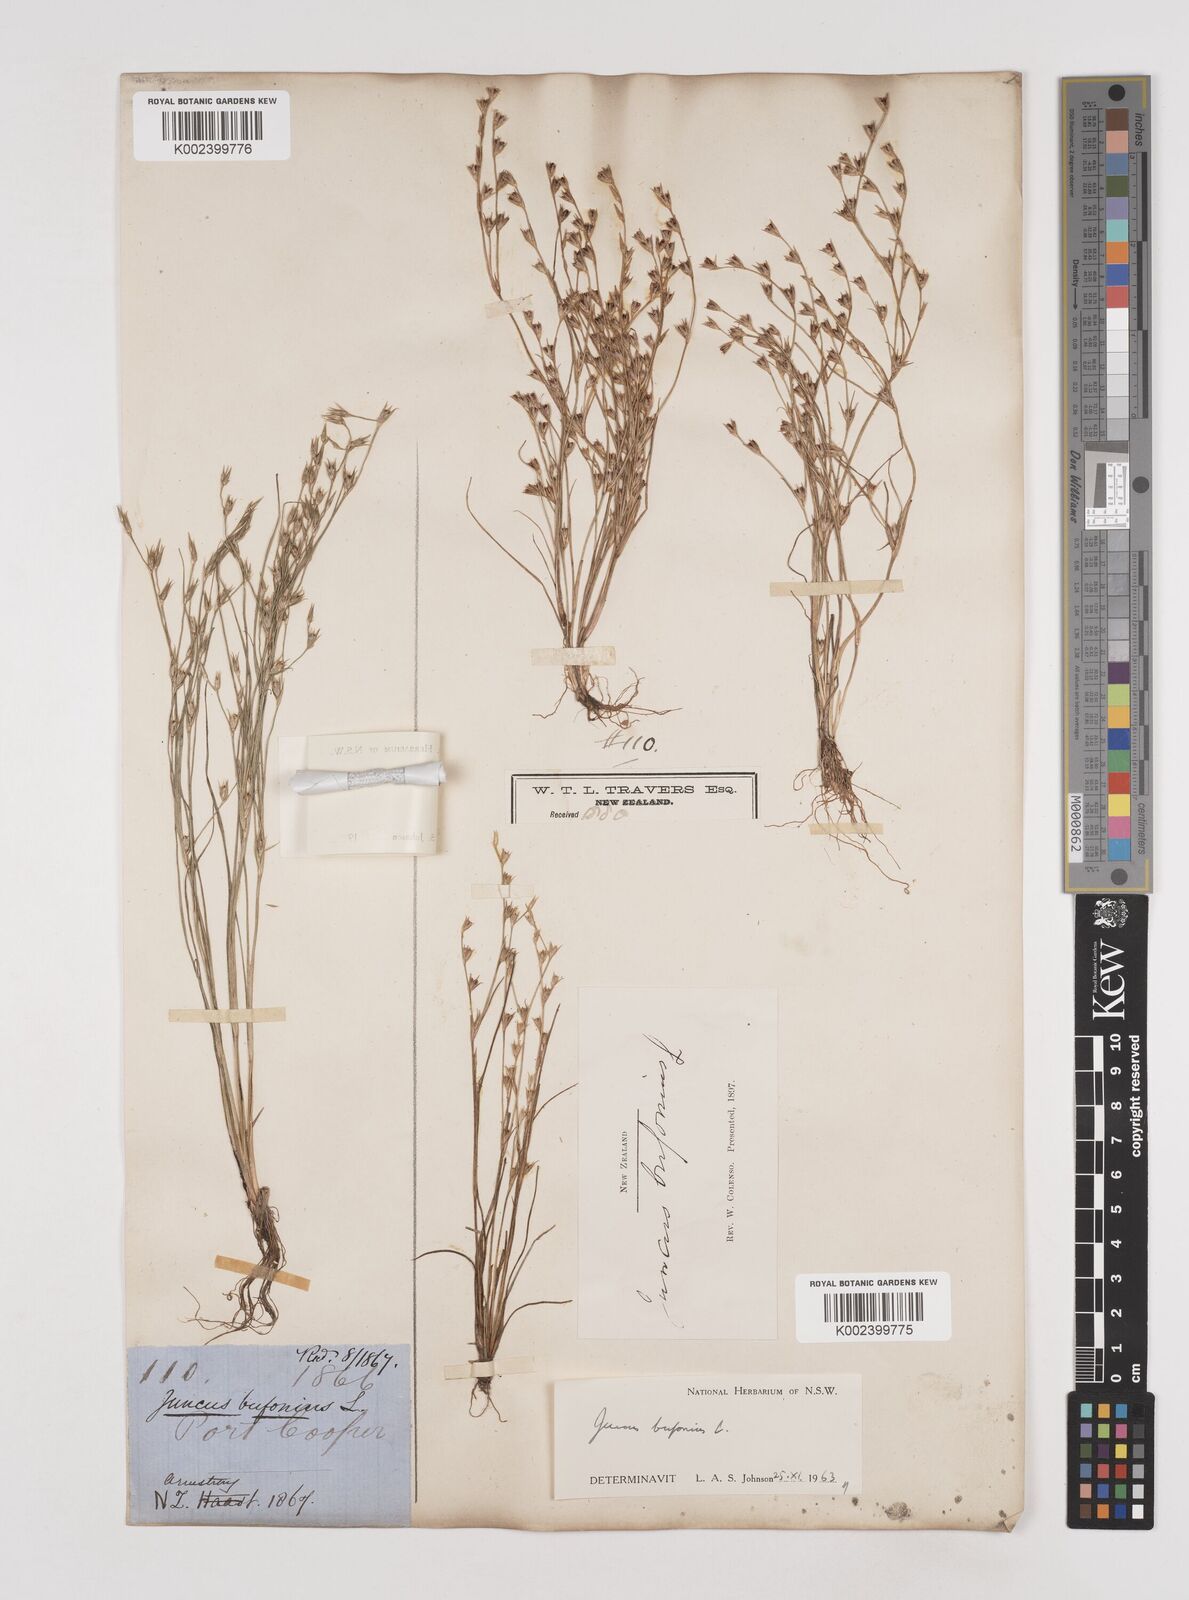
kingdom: Plantae
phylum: Tracheophyta
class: Liliopsida
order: Poales
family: Juncaceae
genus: Juncus
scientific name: Juncus bufonius
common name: Toad rush
